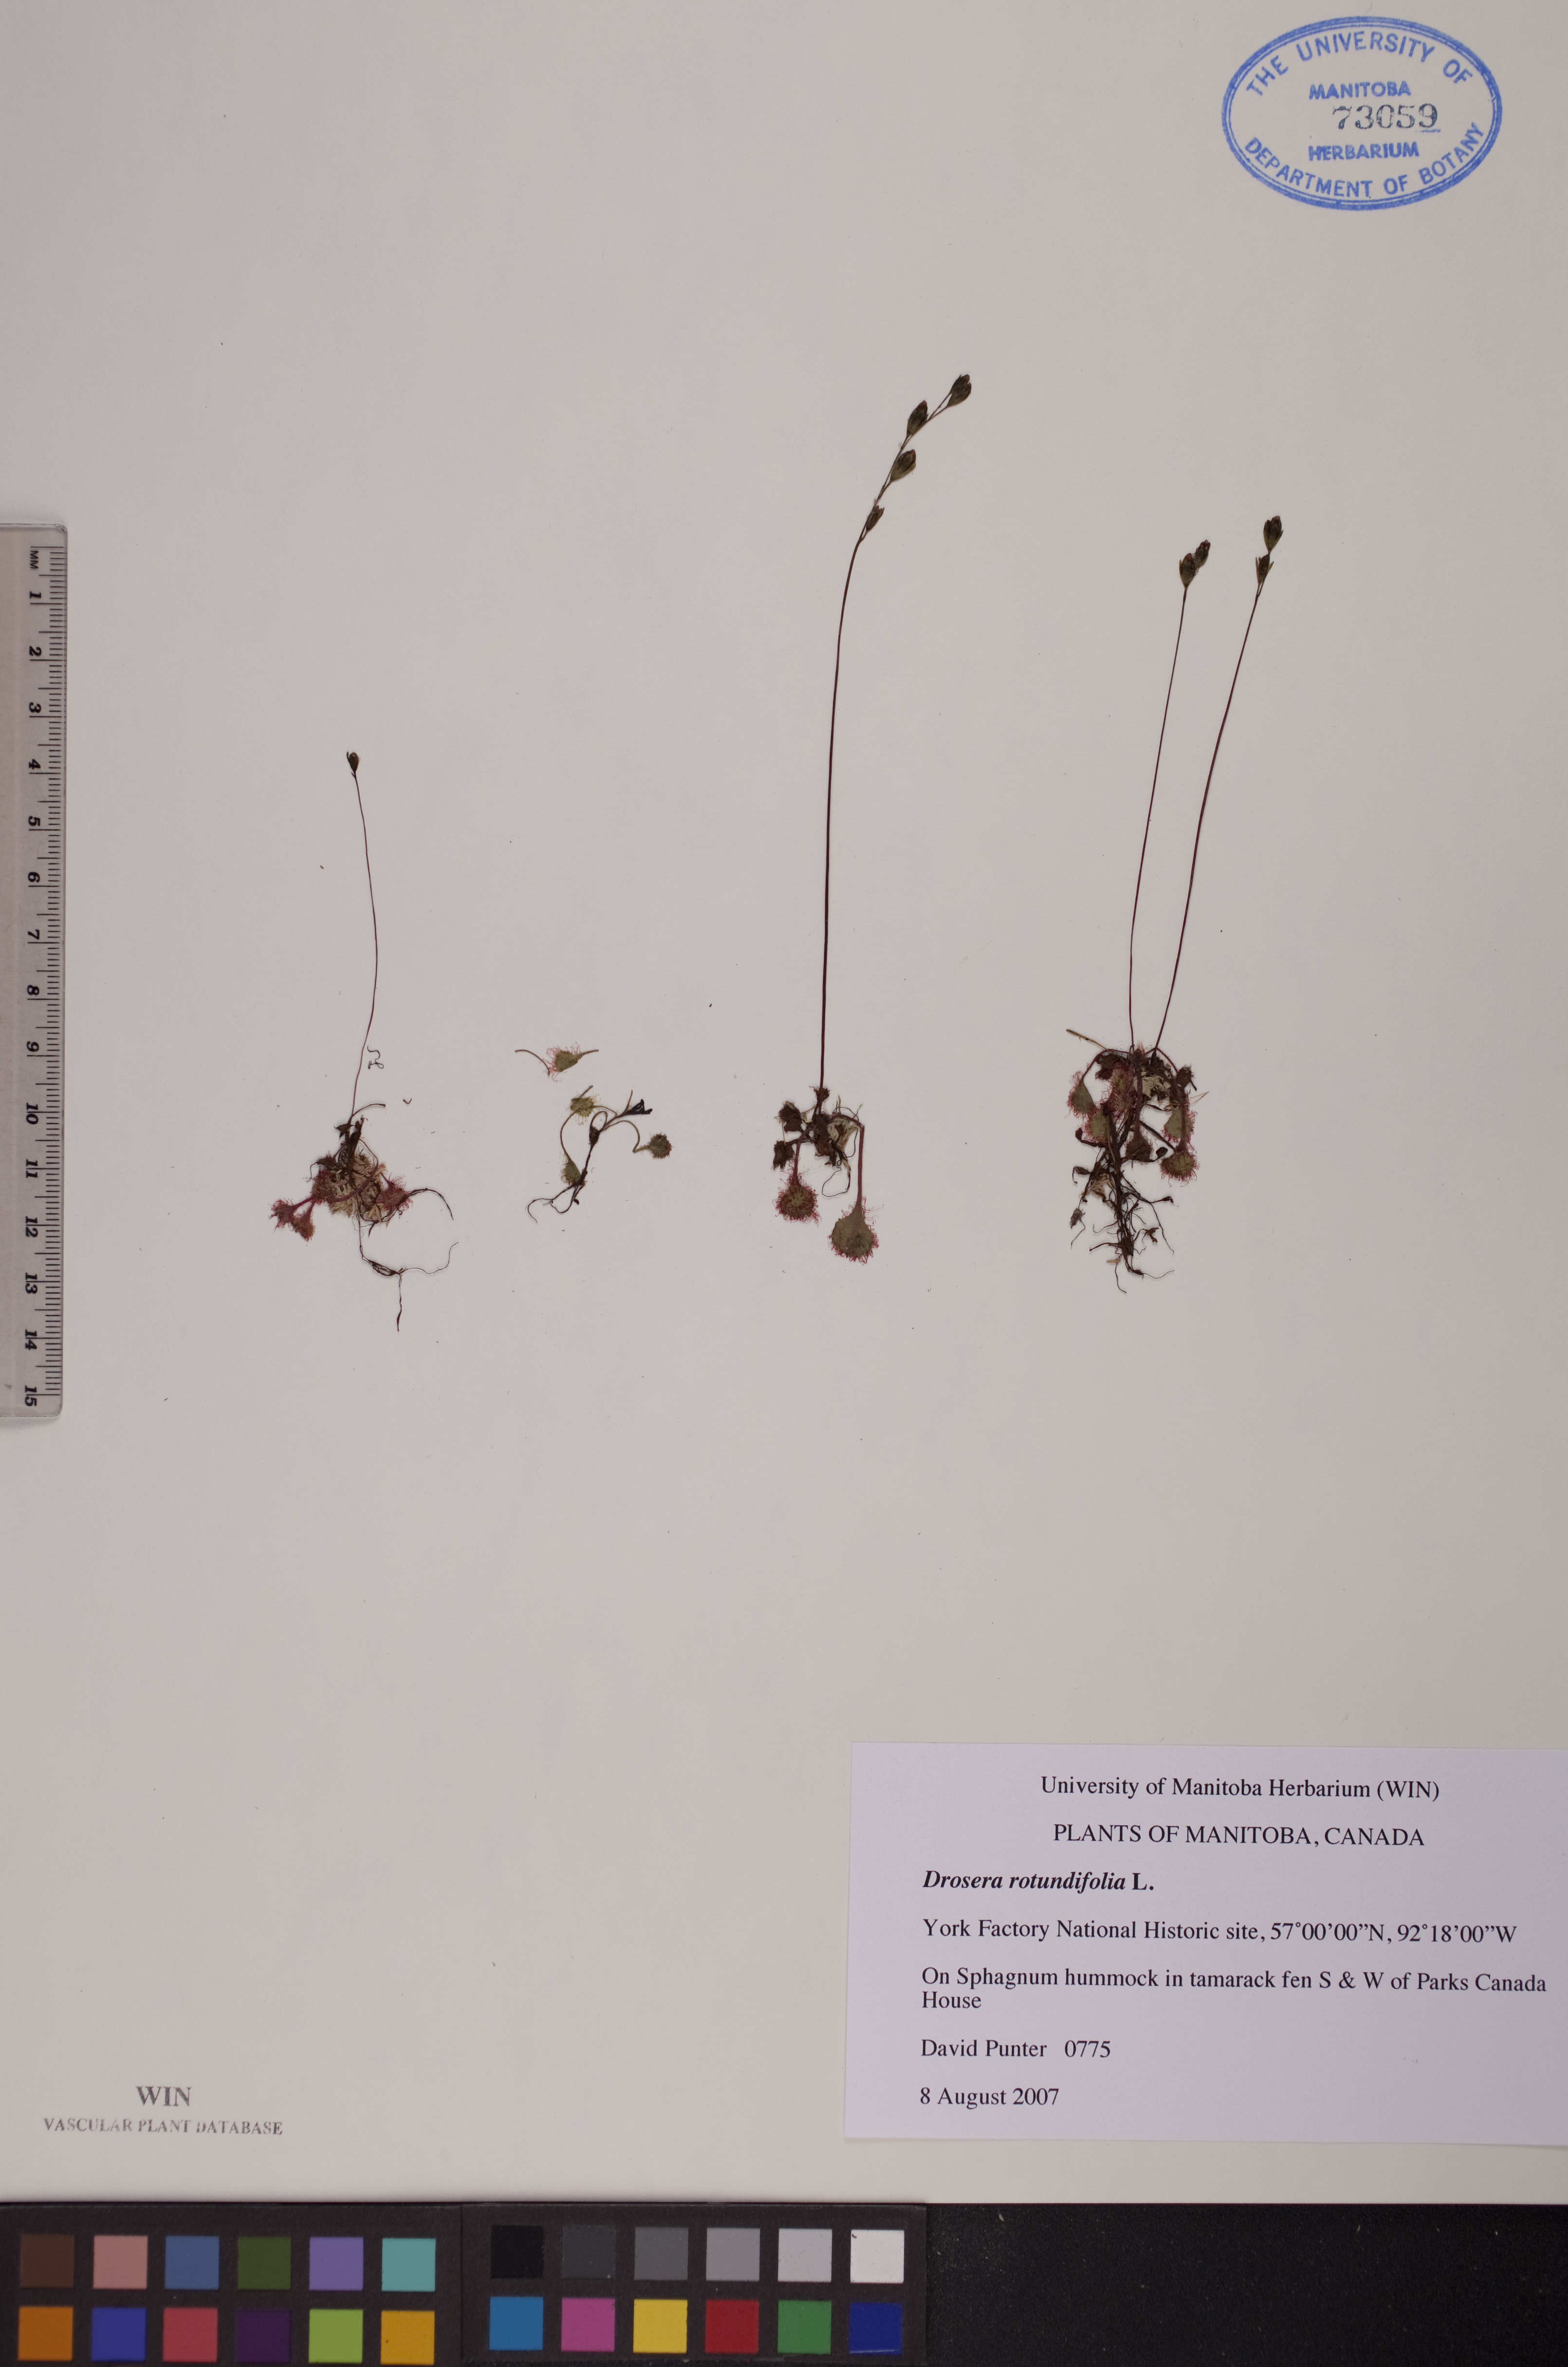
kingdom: Plantae
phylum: Tracheophyta
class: Magnoliopsida
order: Caryophyllales
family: Droseraceae
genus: Drosera
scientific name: Drosera rotundifolia
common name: Round-leaved sundew
